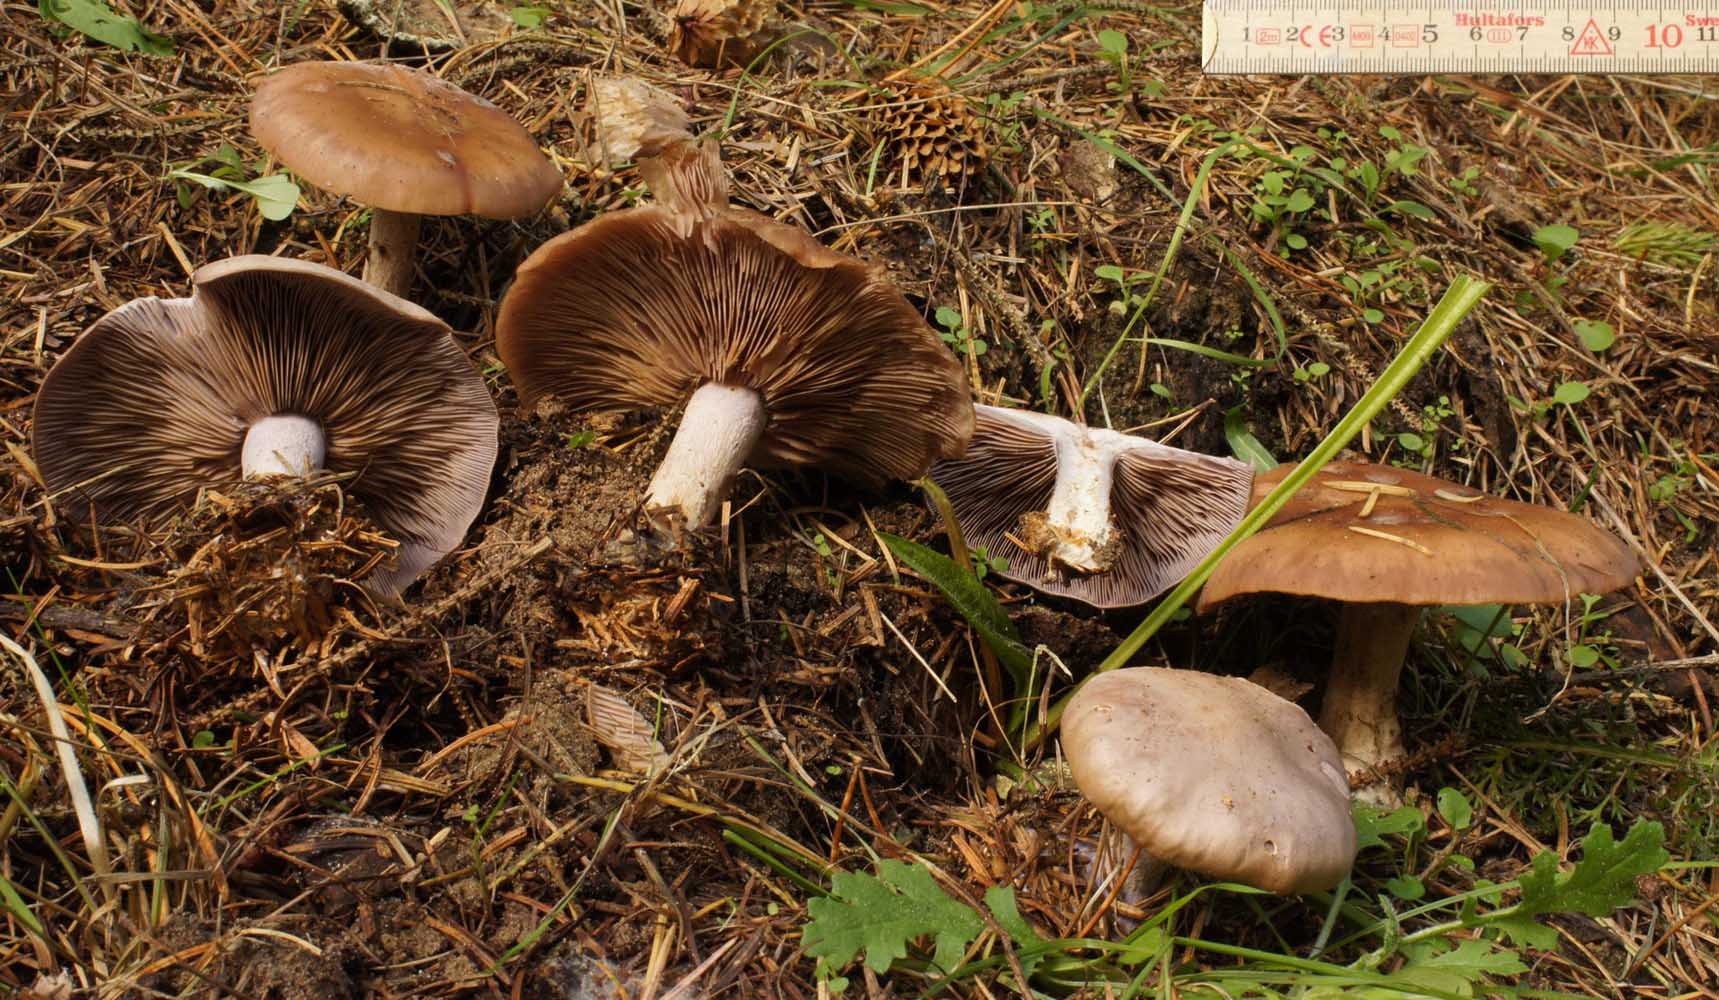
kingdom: Fungi
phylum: Basidiomycota
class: Agaricomycetes
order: Agaricales
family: Tricholomataceae
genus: Lepista
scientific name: Lepista nuda
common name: violet hekseringshat
